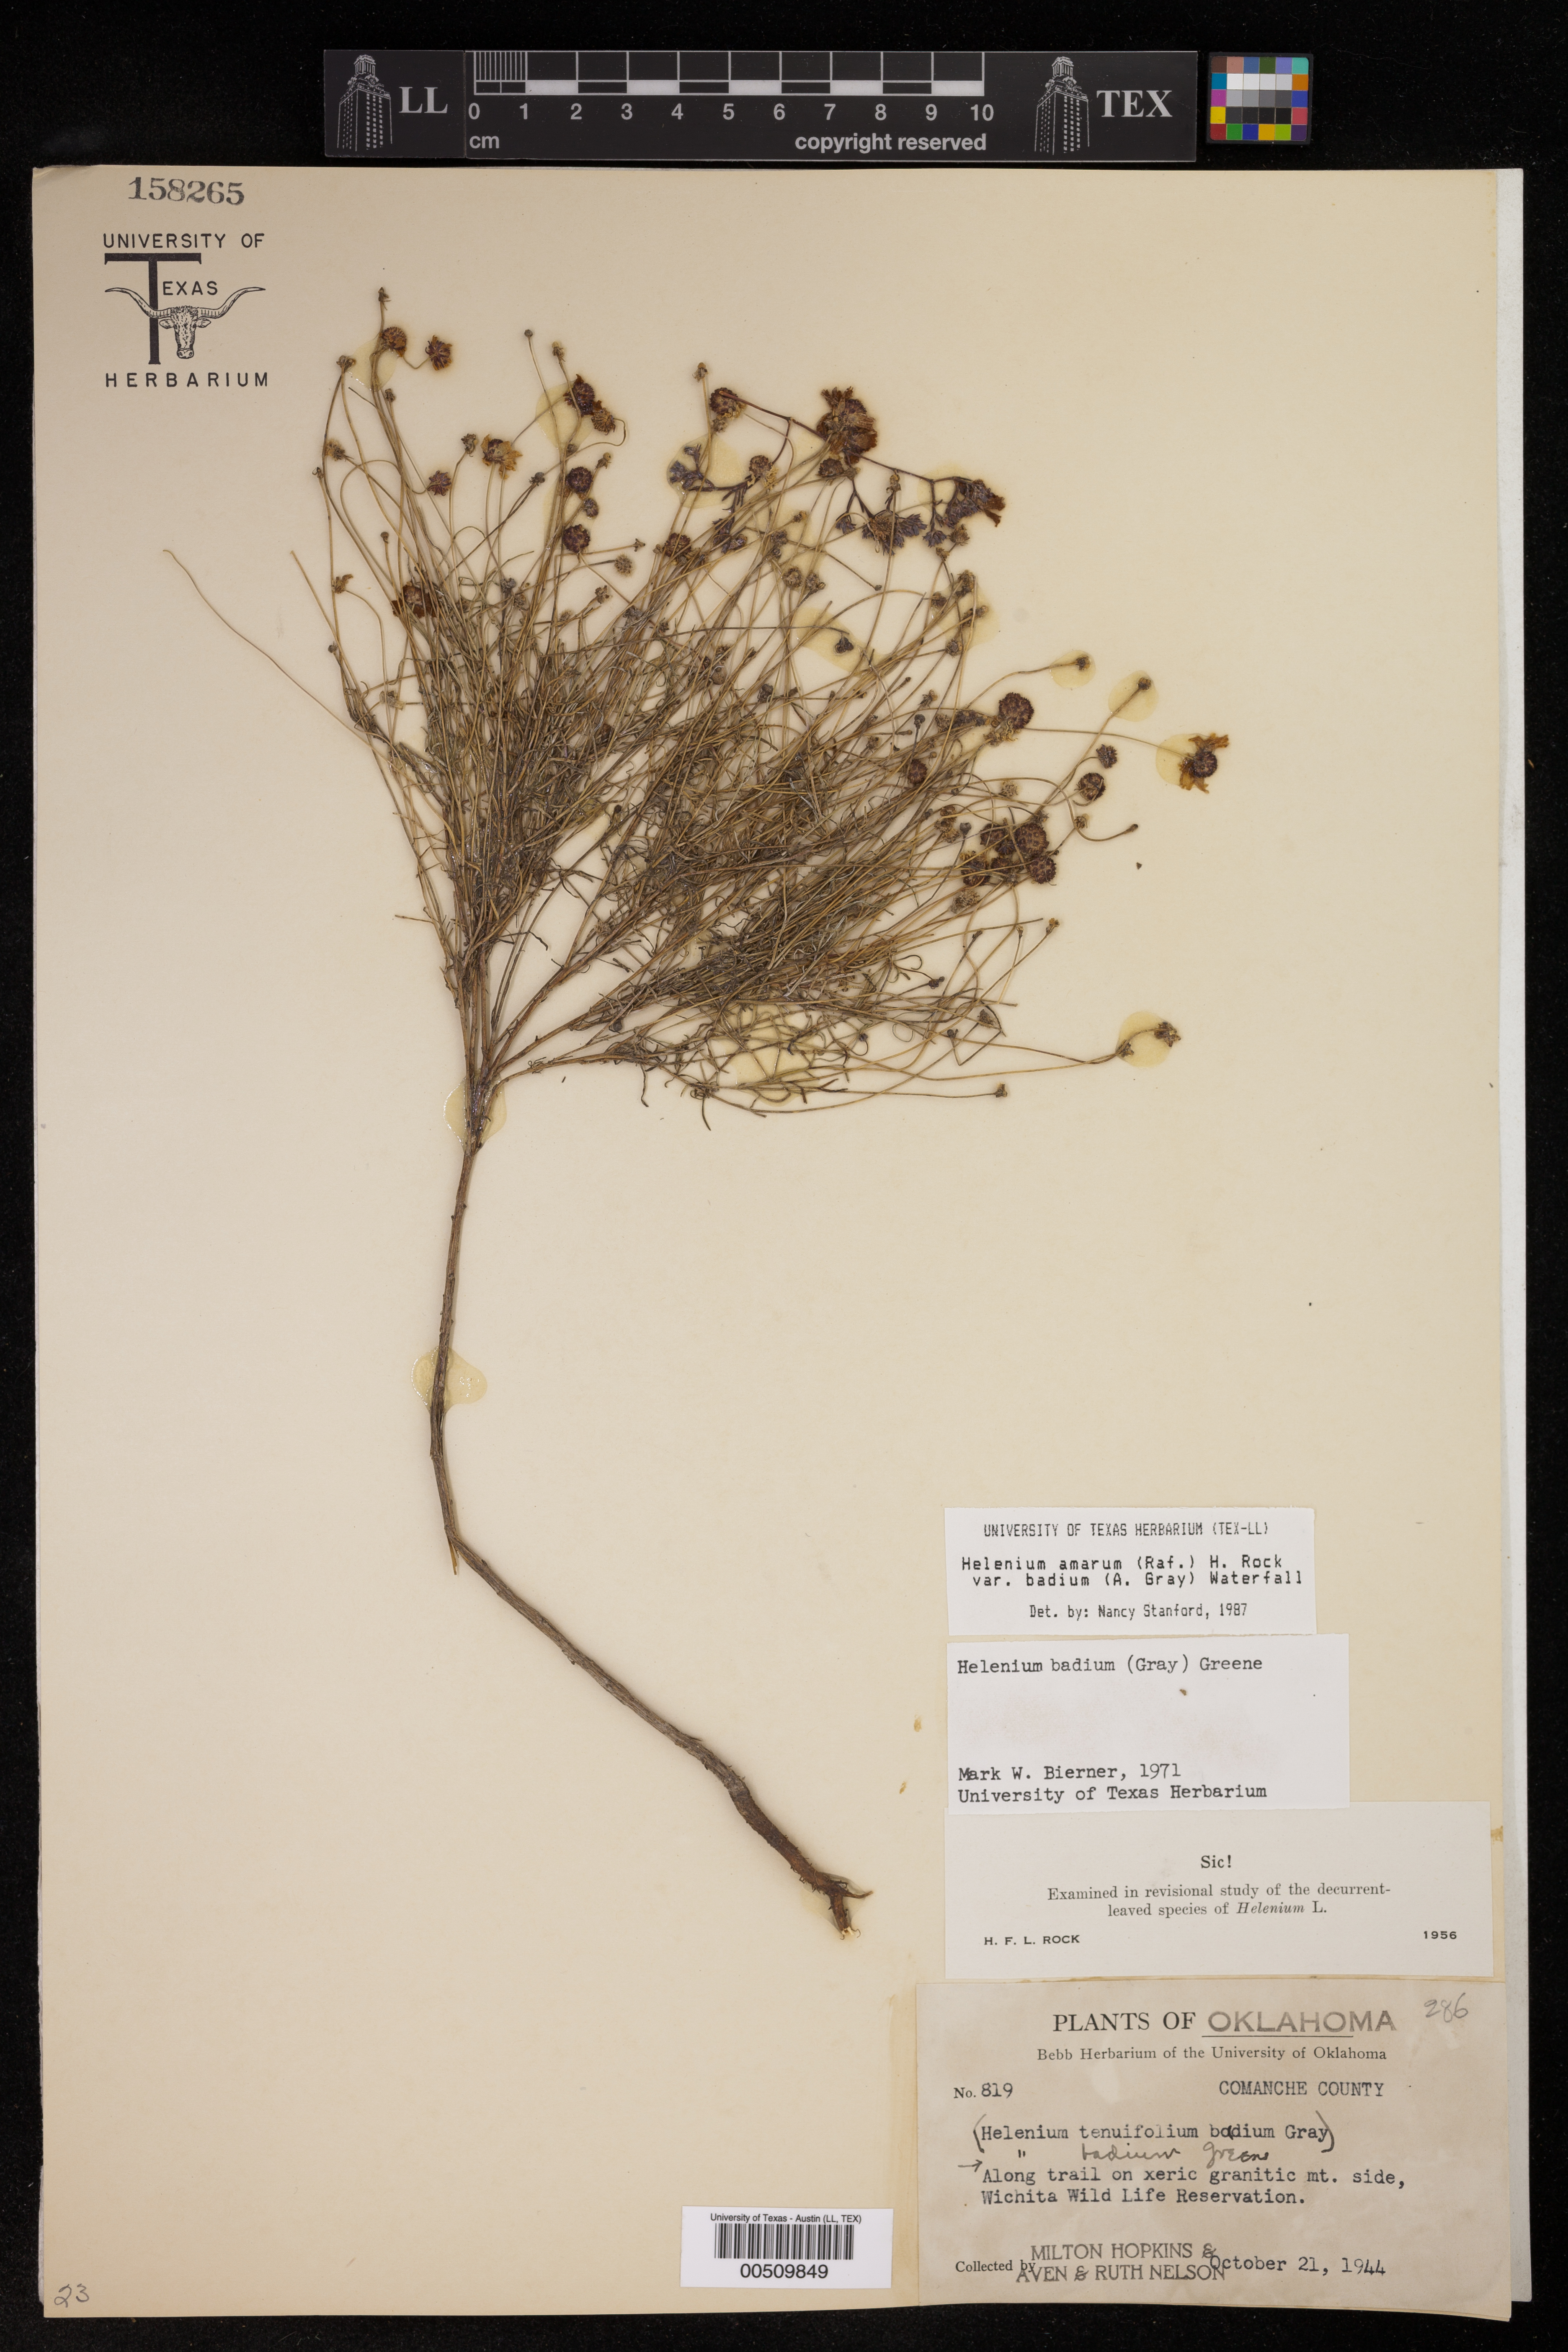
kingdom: Plantae
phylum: Tracheophyta
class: Magnoliopsida
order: Asterales
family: Asteraceae
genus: Helenium
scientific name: Helenium amarum
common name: Bitter sneezeweed
